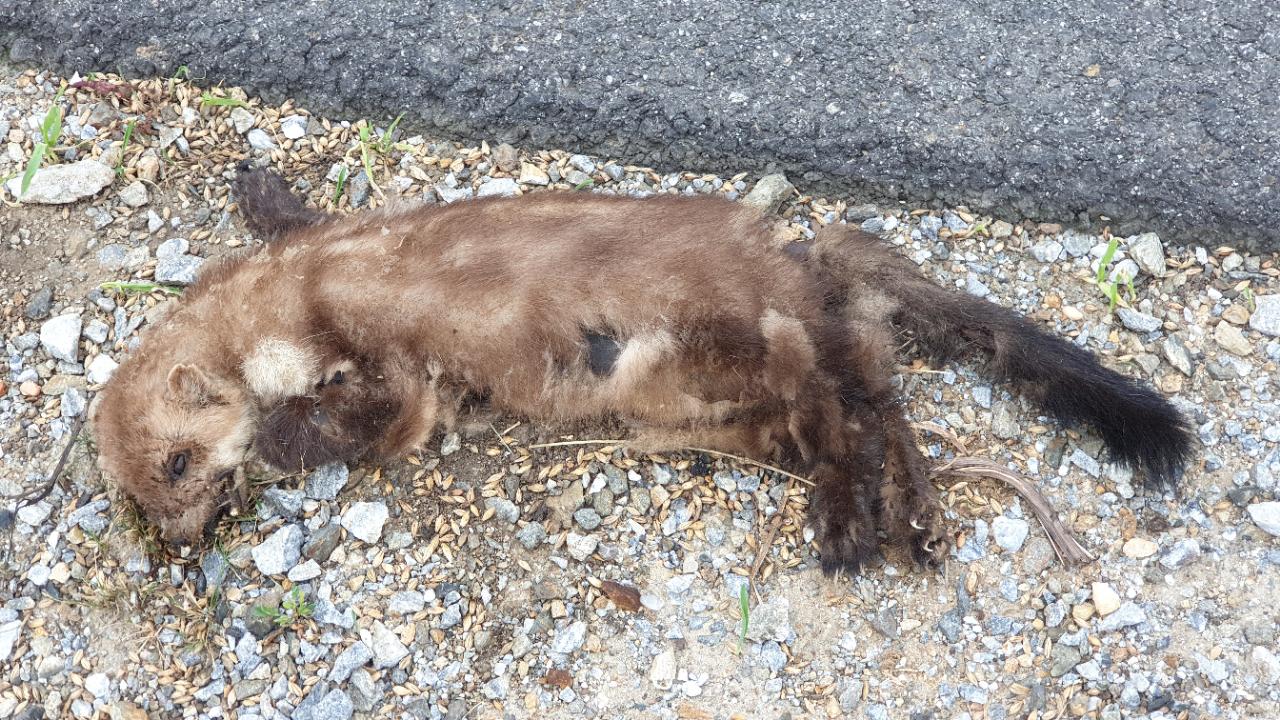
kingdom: Animalia
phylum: Chordata
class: Mammalia
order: Carnivora
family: Mustelidae
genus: Martes
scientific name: Martes foina
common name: Beech marten
